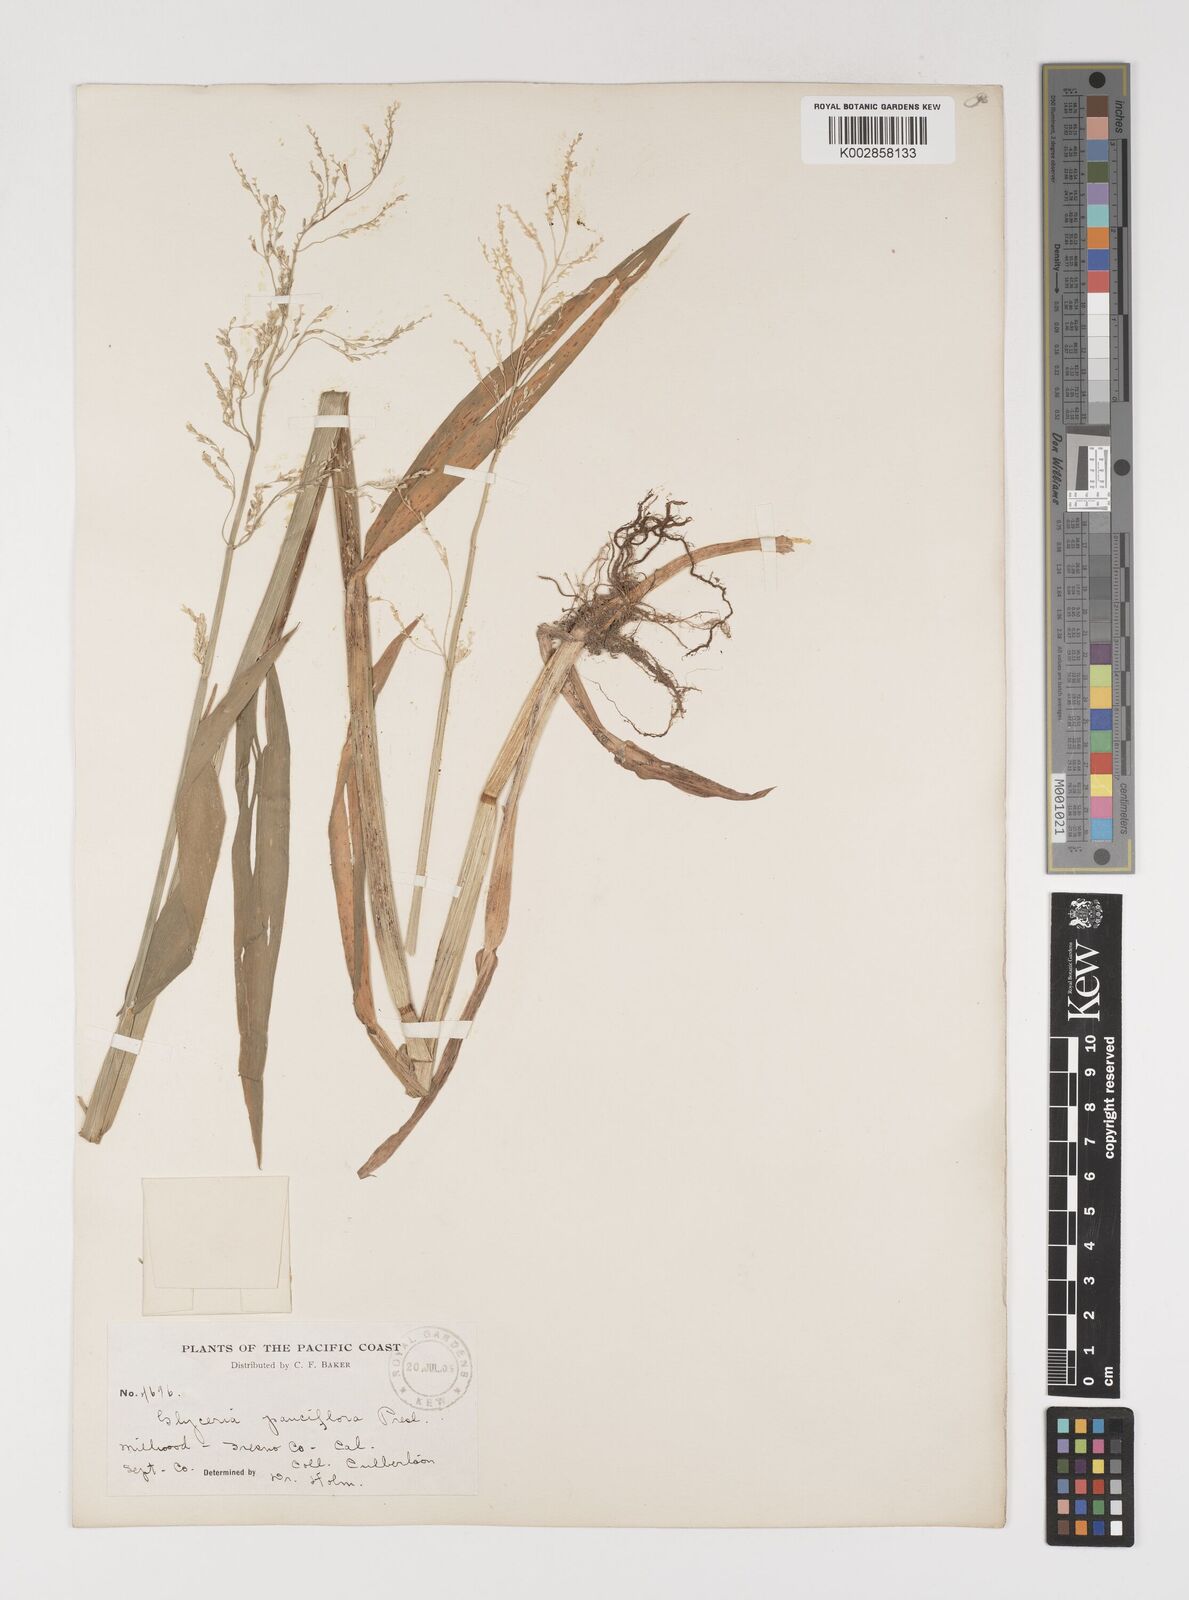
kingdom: Plantae
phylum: Tracheophyta
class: Liliopsida
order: Poales
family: Poaceae
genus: Torreyochloa
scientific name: Torreyochloa pallida
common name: Pale false mannagrass
